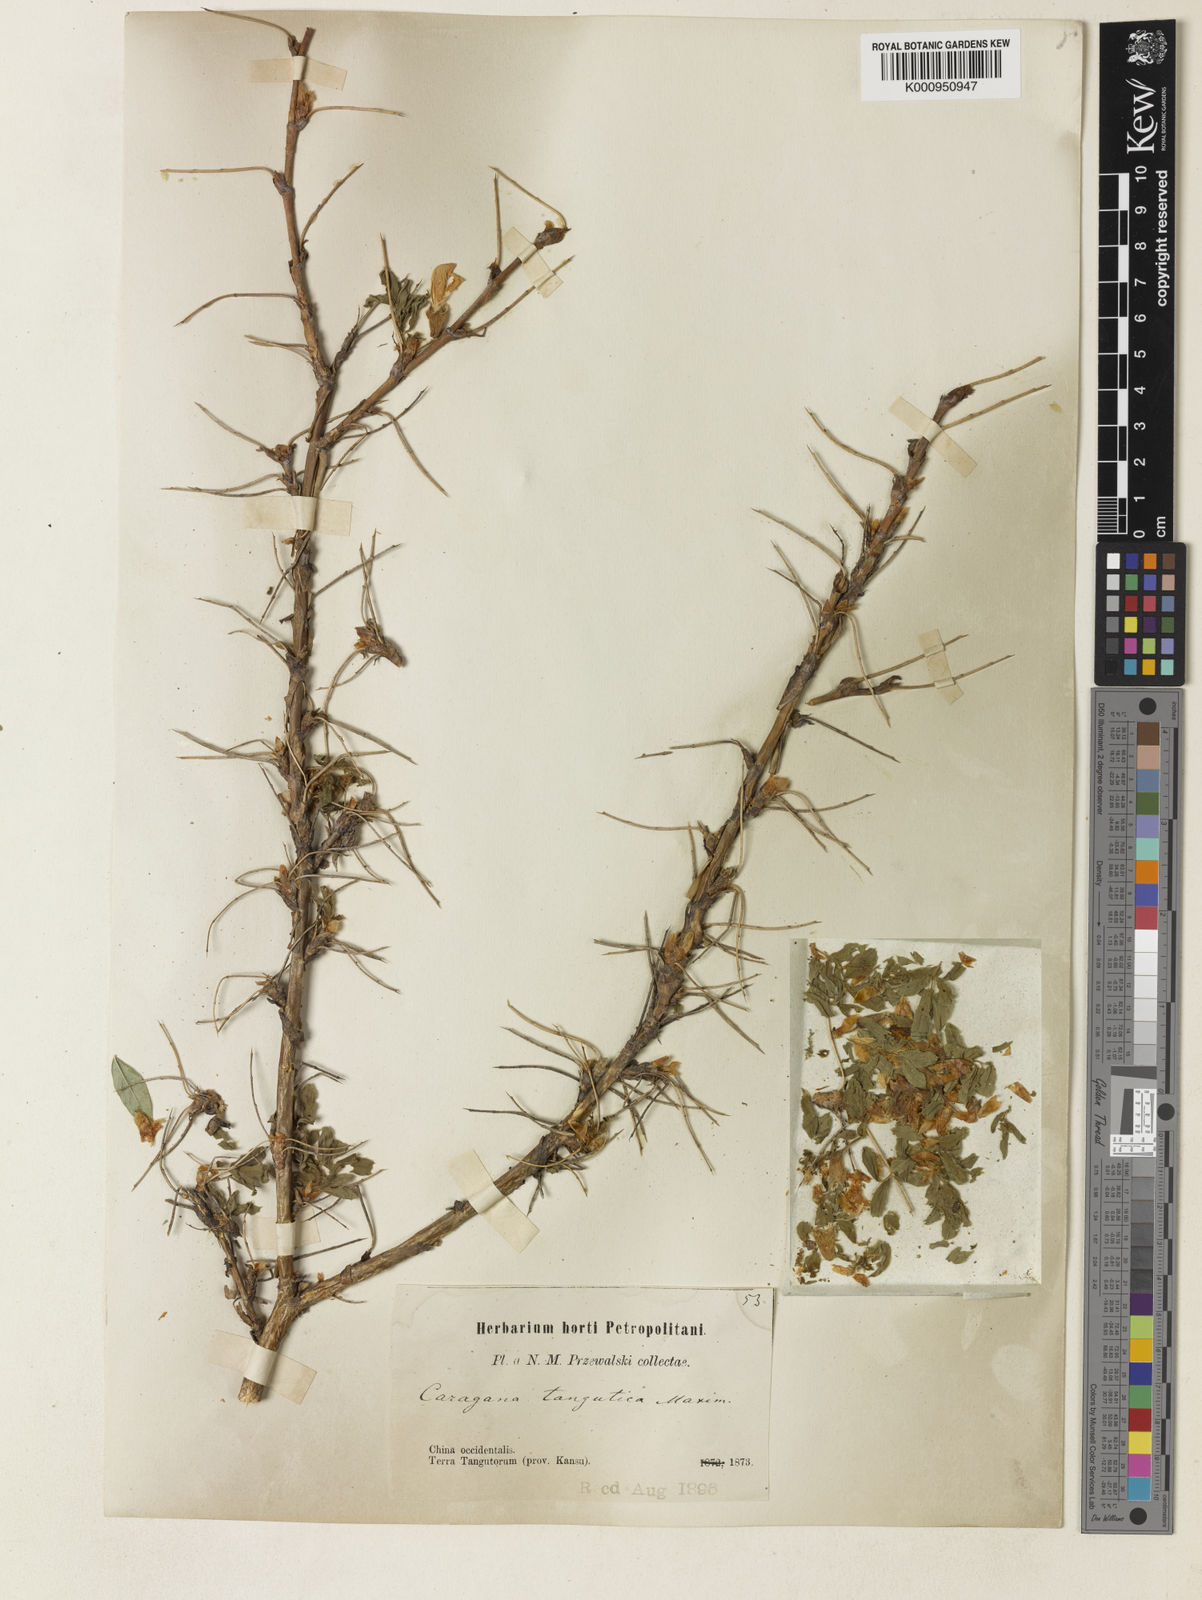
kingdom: Plantae
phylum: Tracheophyta
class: Magnoliopsida
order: Fabales
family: Fabaceae
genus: Caragana
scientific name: Caragana
